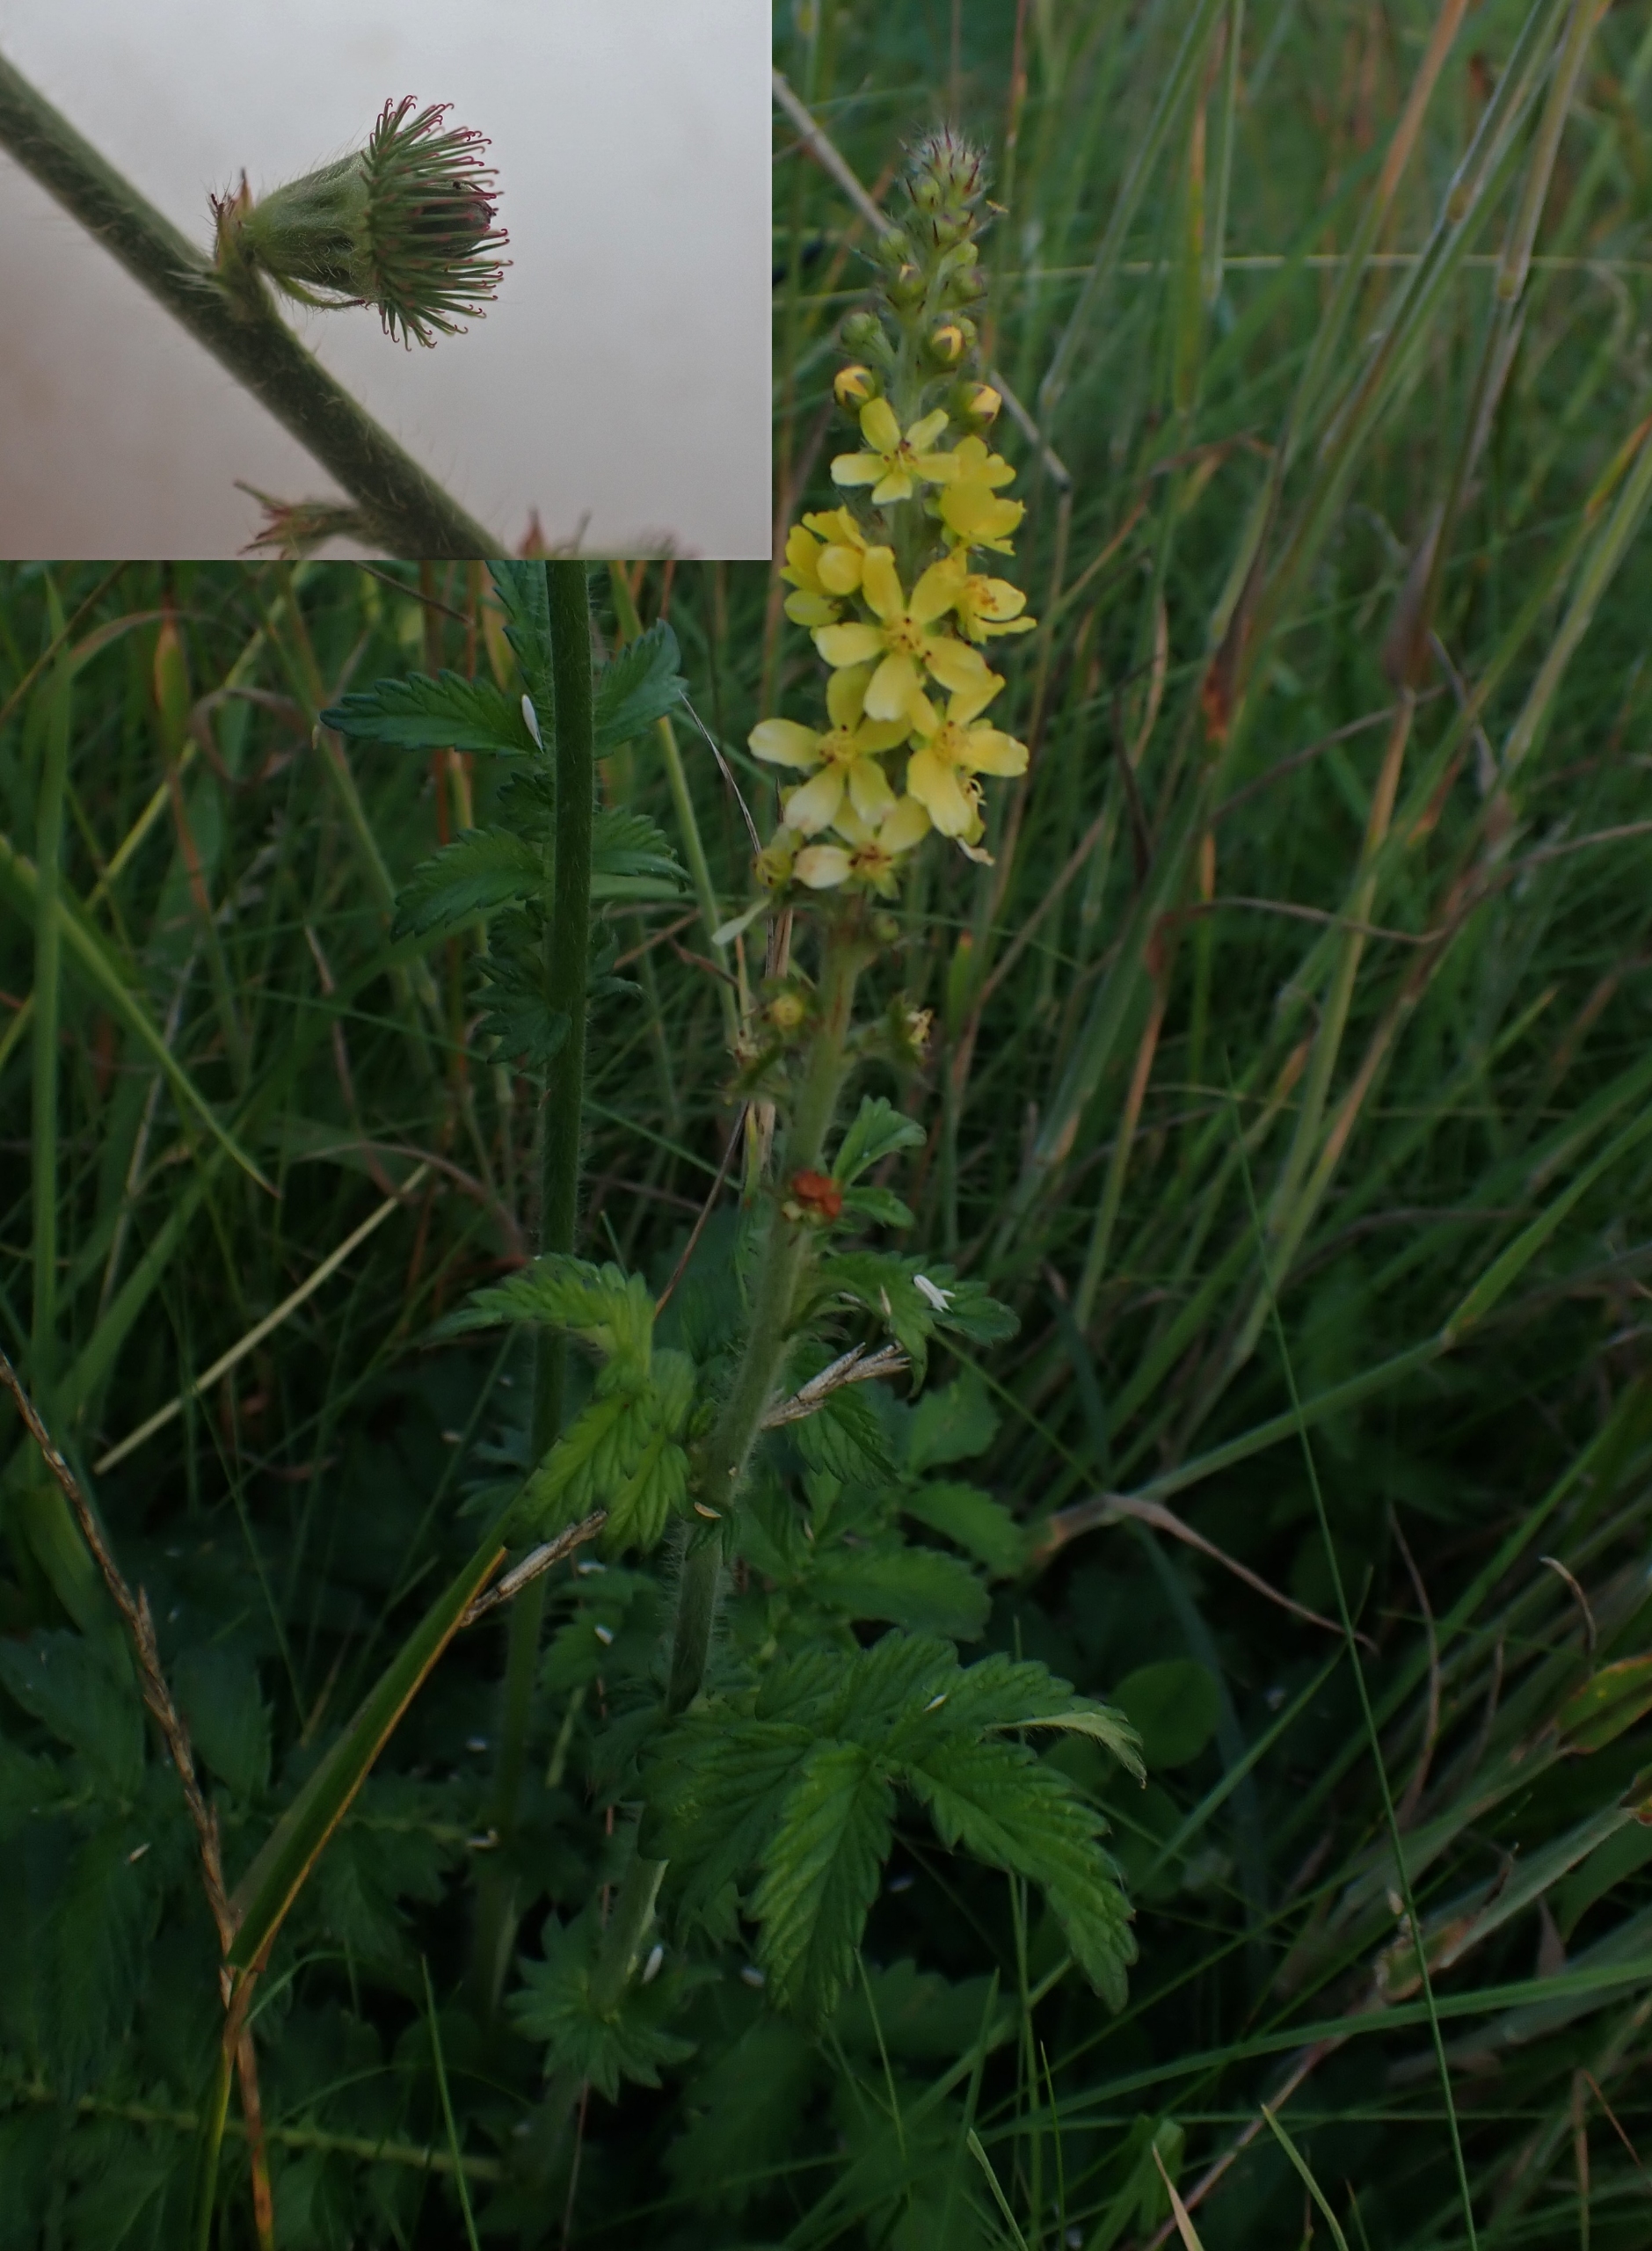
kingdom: Plantae
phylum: Tracheophyta
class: Magnoliopsida
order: Rosales
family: Rosaceae
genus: Agrimonia
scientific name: Agrimonia eupatoria
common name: Almindelig agermåne
